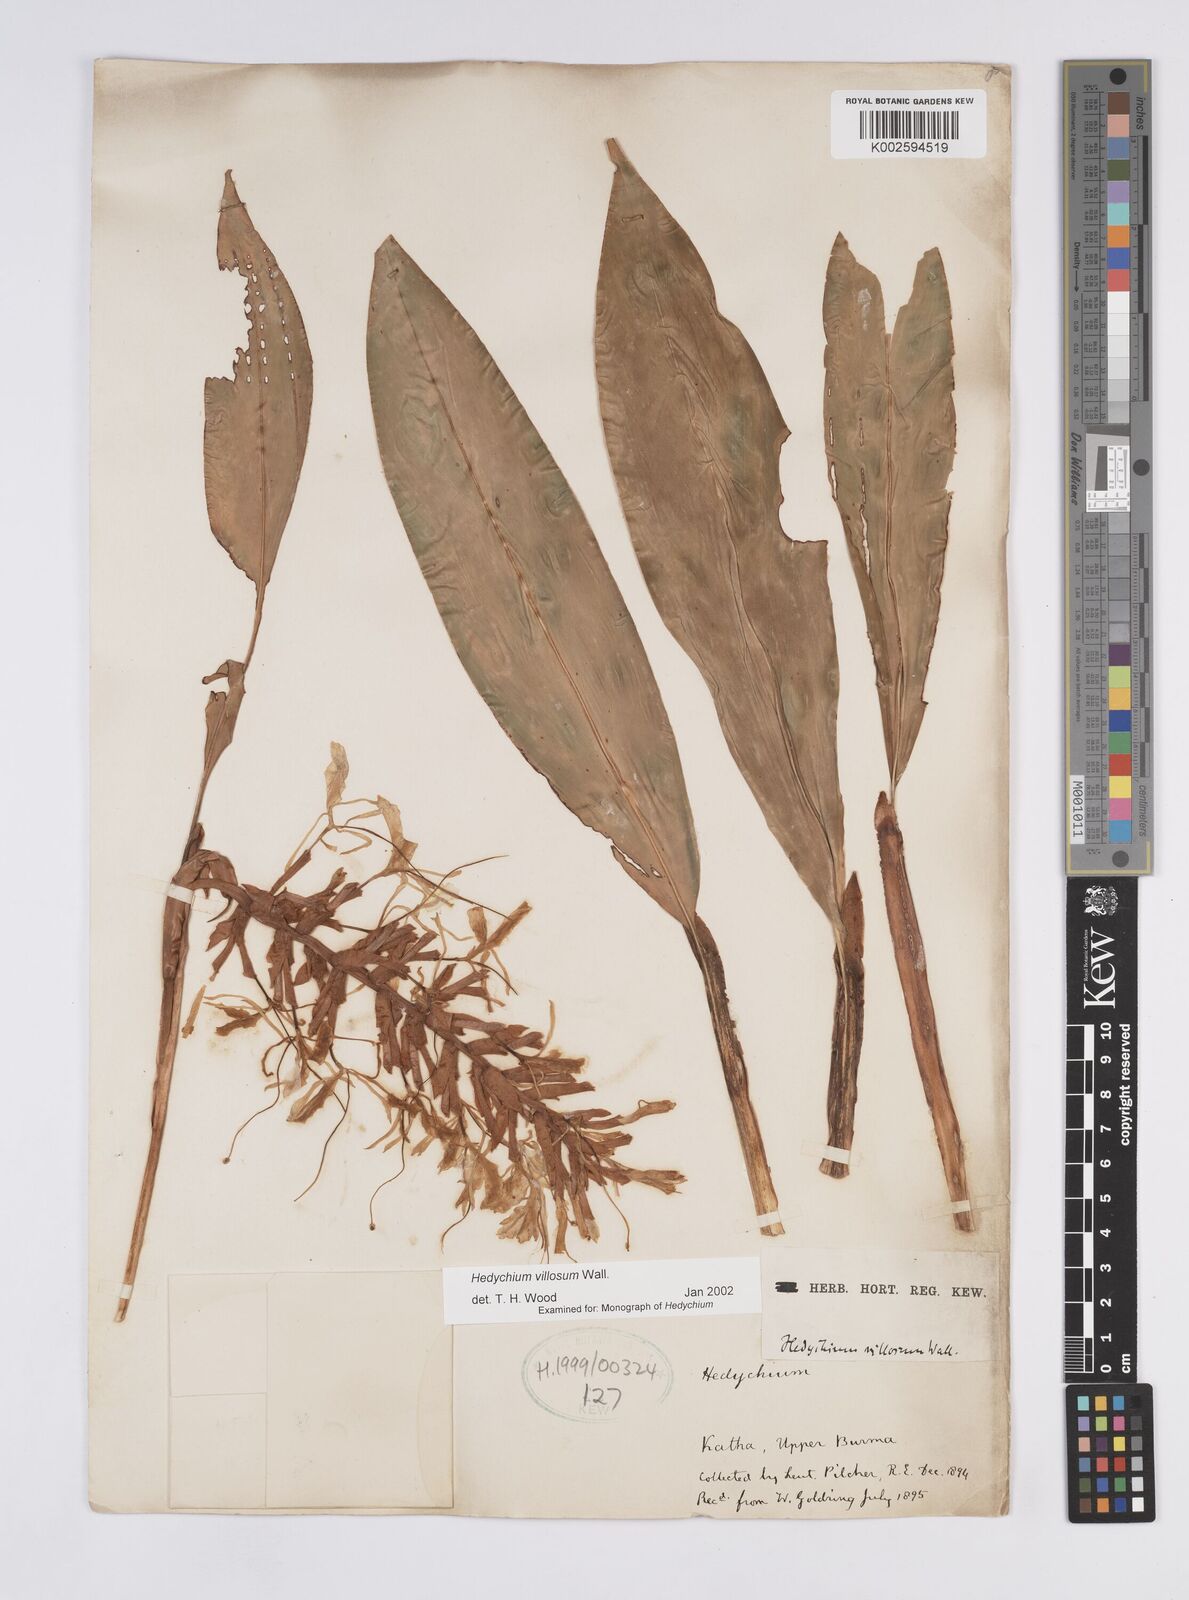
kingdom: Plantae
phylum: Tracheophyta
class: Liliopsida
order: Zingiberales
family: Zingiberaceae
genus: Hedychium
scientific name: Hedychium villosum
